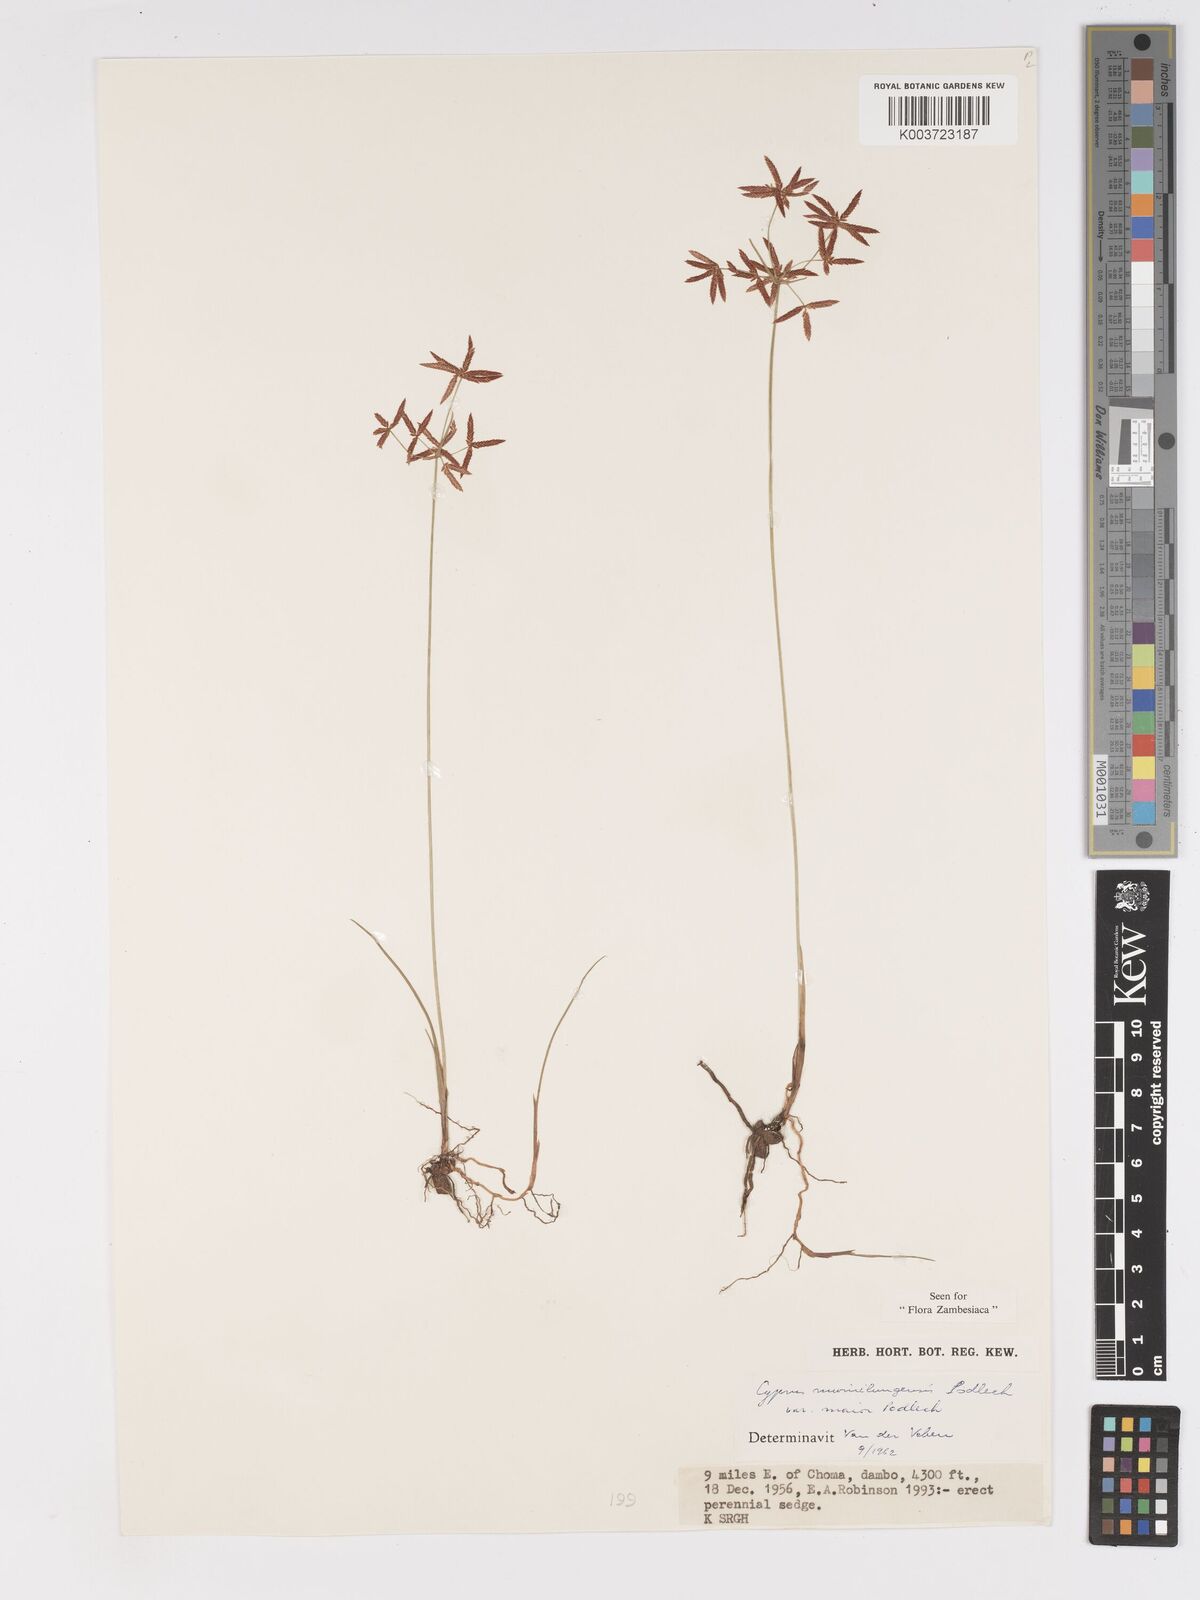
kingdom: Plantae
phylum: Tracheophyta
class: Liliopsida
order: Poales
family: Cyperaceae
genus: Cyperus
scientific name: Cyperus mwinilungensis
